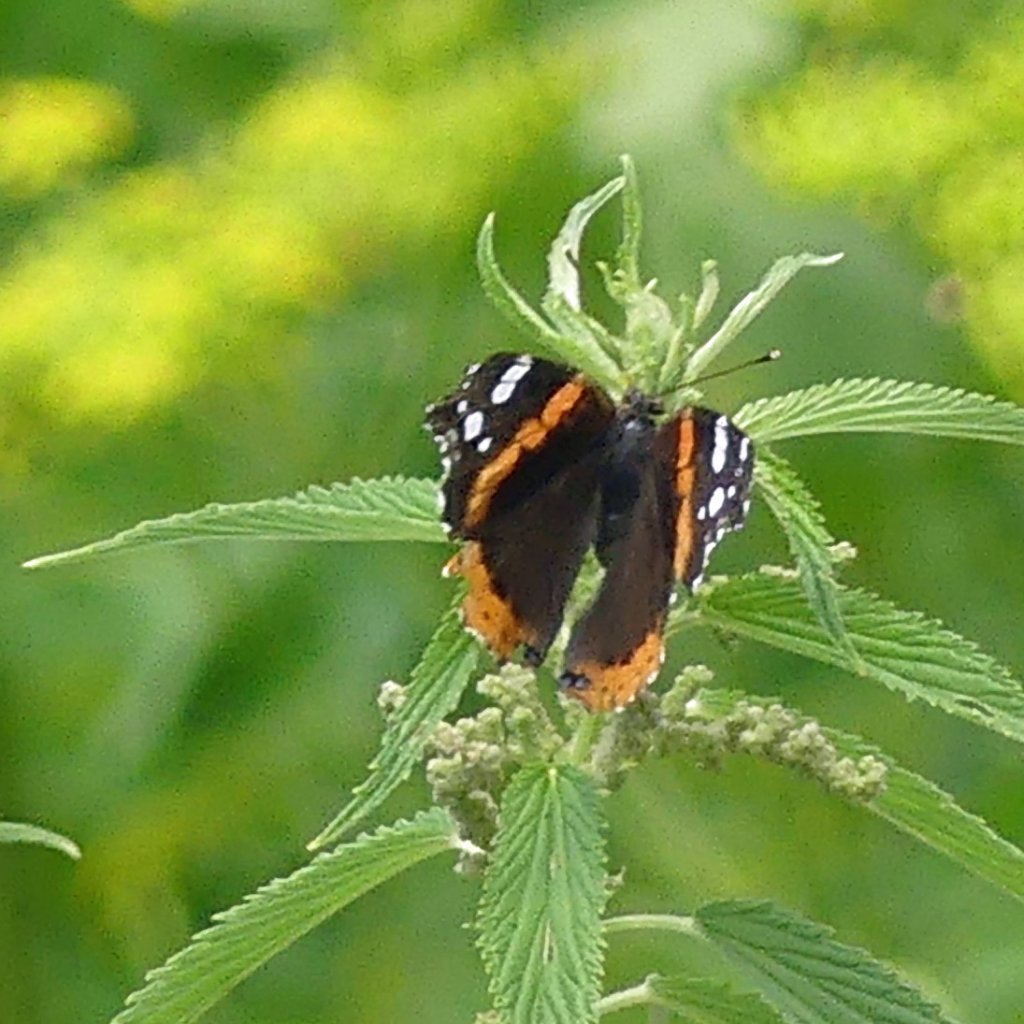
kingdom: Animalia
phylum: Arthropoda
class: Insecta
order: Lepidoptera
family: Nymphalidae
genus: Vanessa
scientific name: Vanessa atalanta
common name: Red Admiral
